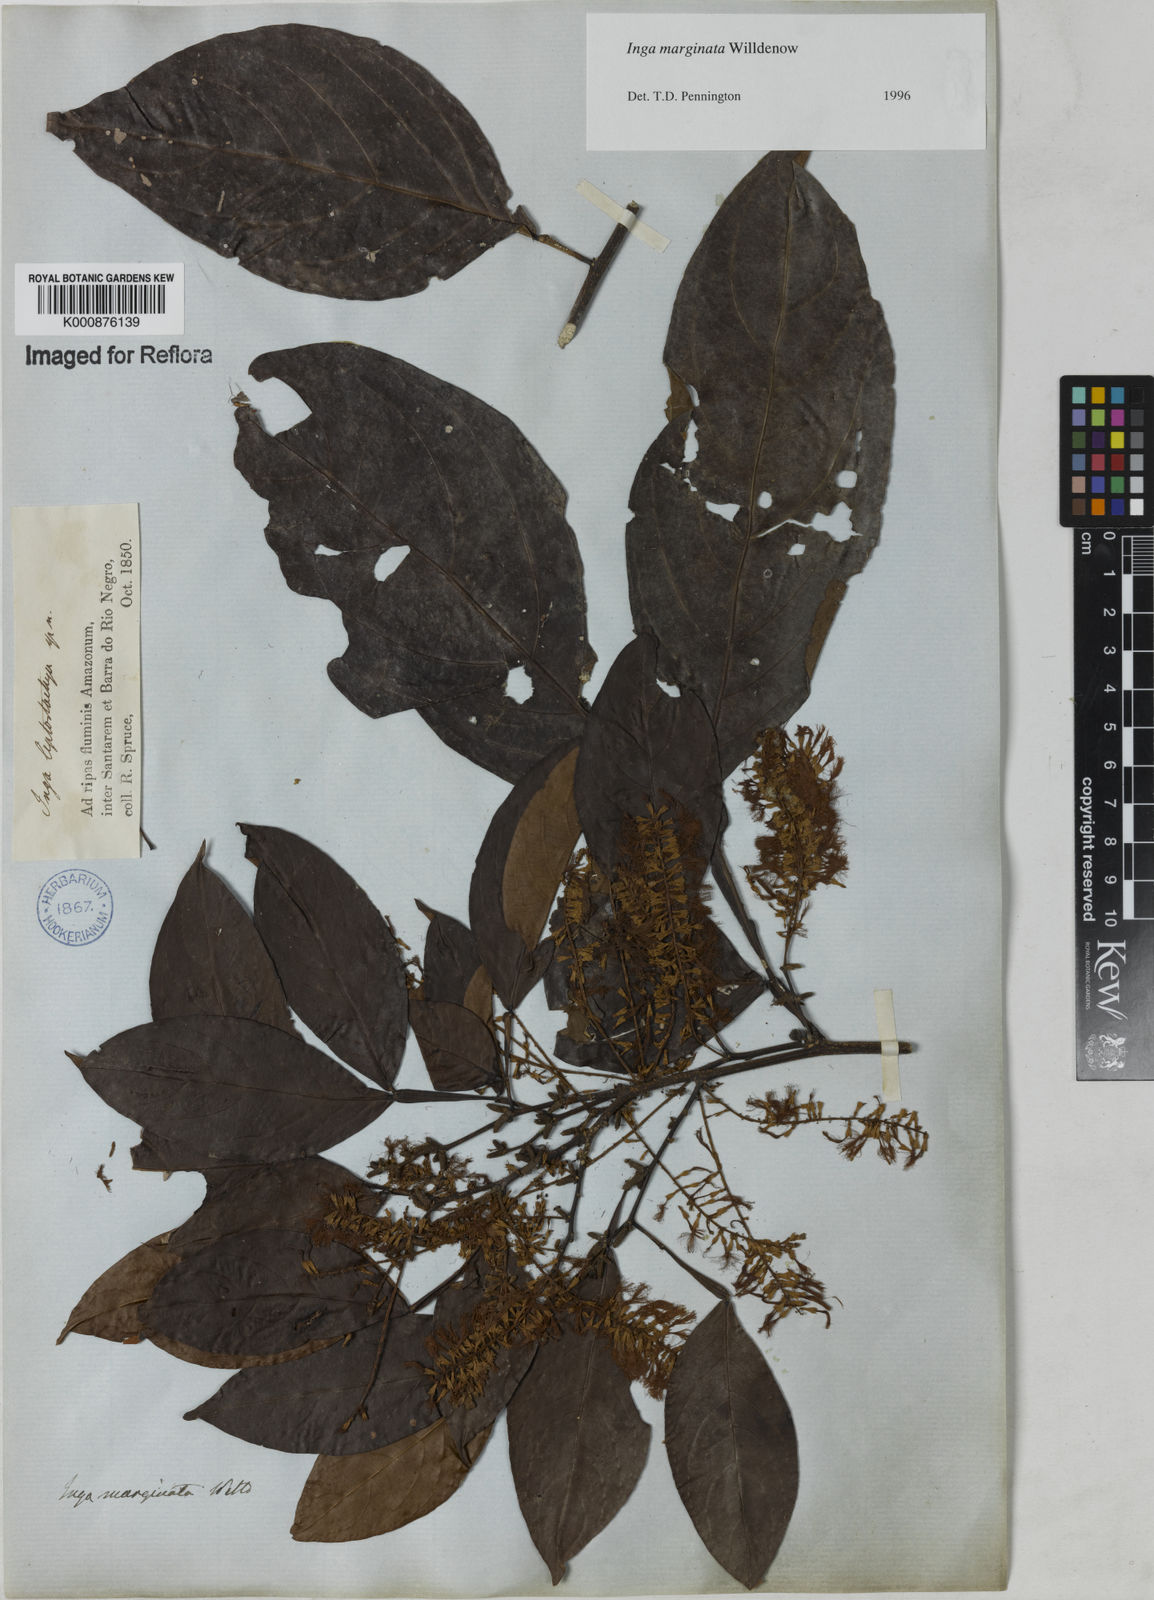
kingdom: Plantae
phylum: Tracheophyta
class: Magnoliopsida
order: Fabales
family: Fabaceae
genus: Inga
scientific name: Inga marginata
